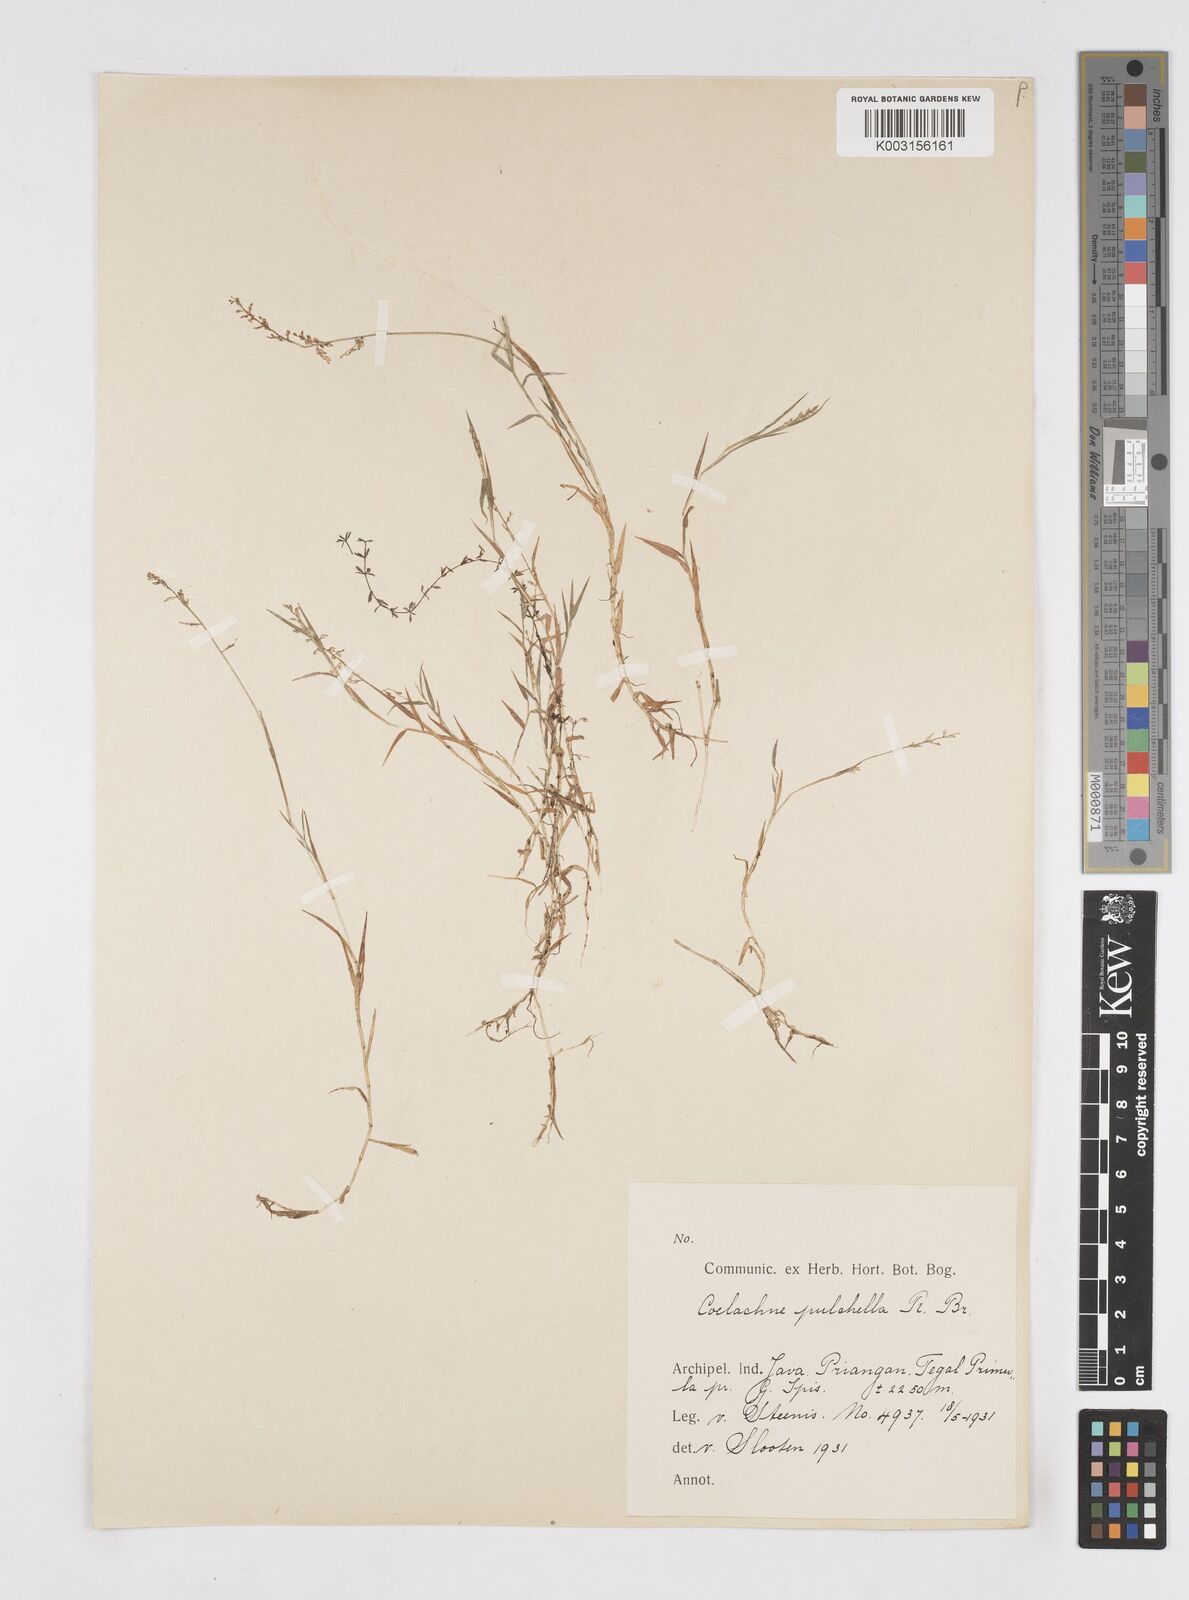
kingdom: Plantae
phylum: Tracheophyta
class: Liliopsida
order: Poales
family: Poaceae
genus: Coelachne
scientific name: Coelachne infirma
